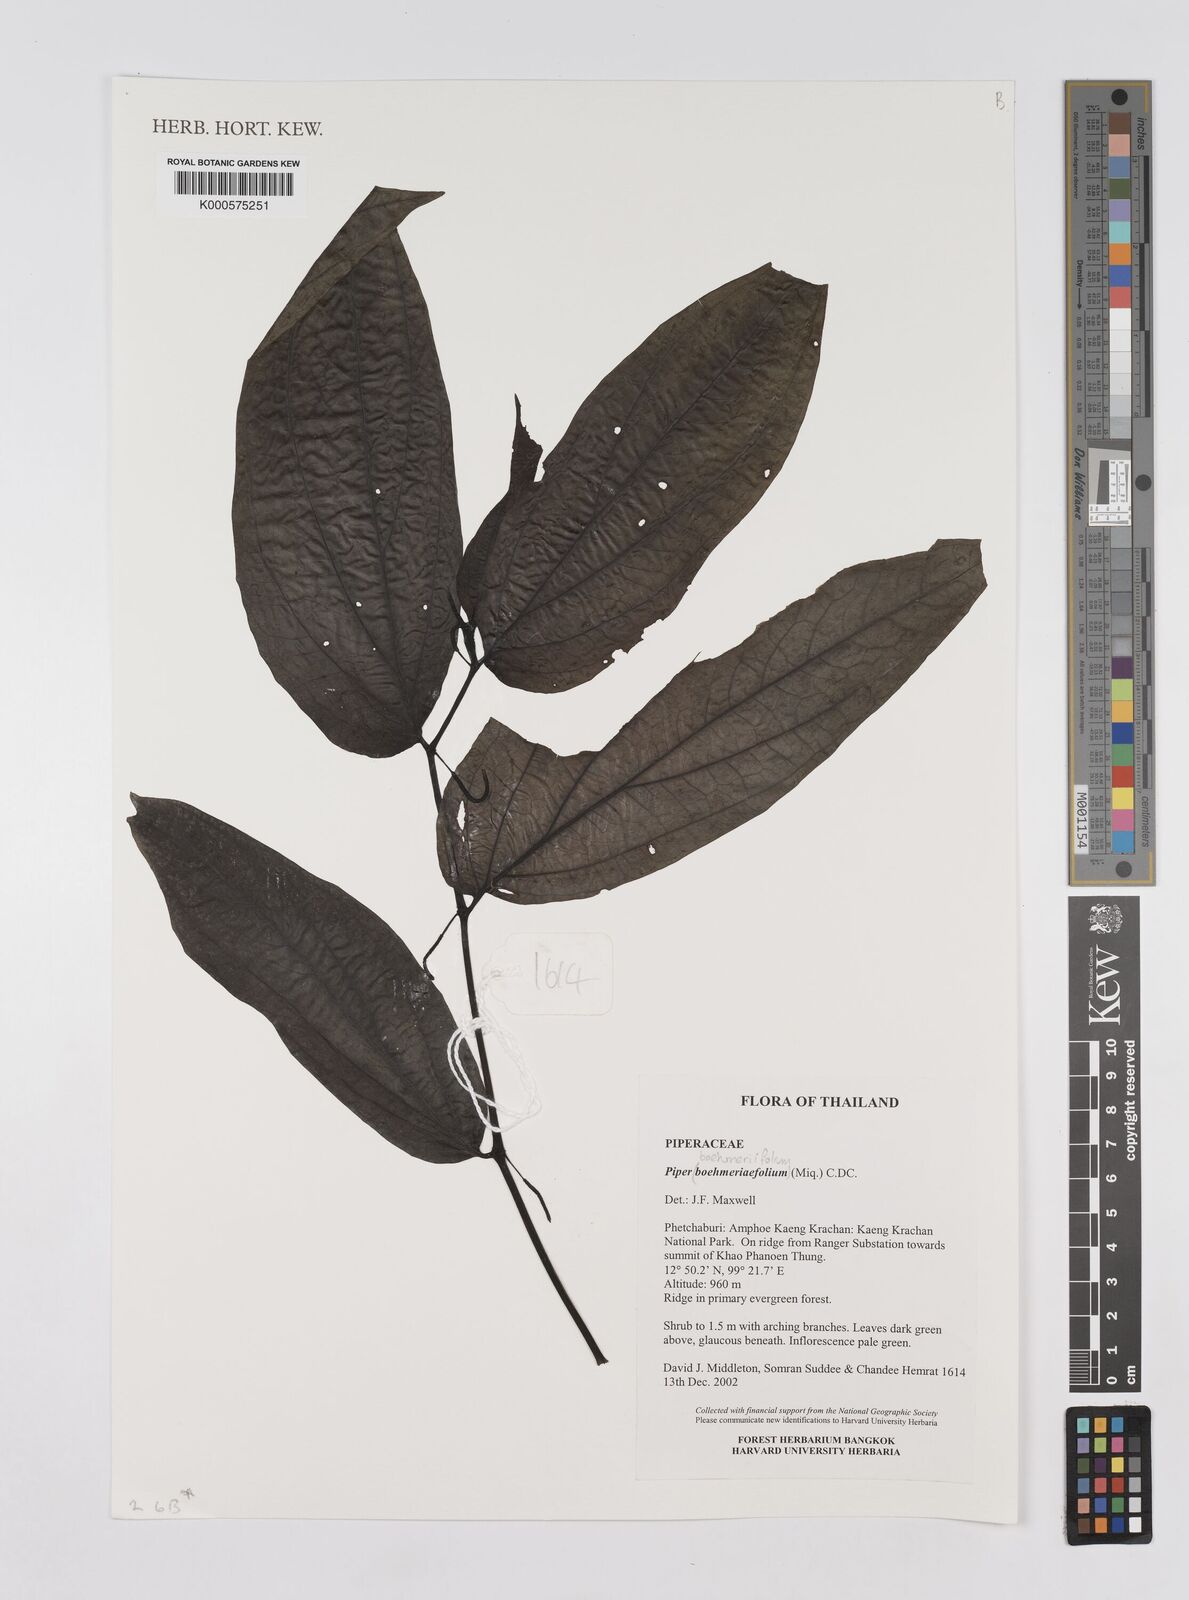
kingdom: Plantae
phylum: Tracheophyta
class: Magnoliopsida
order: Piperales
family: Piperaceae
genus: Piper
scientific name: Piper boehmeriifolium
